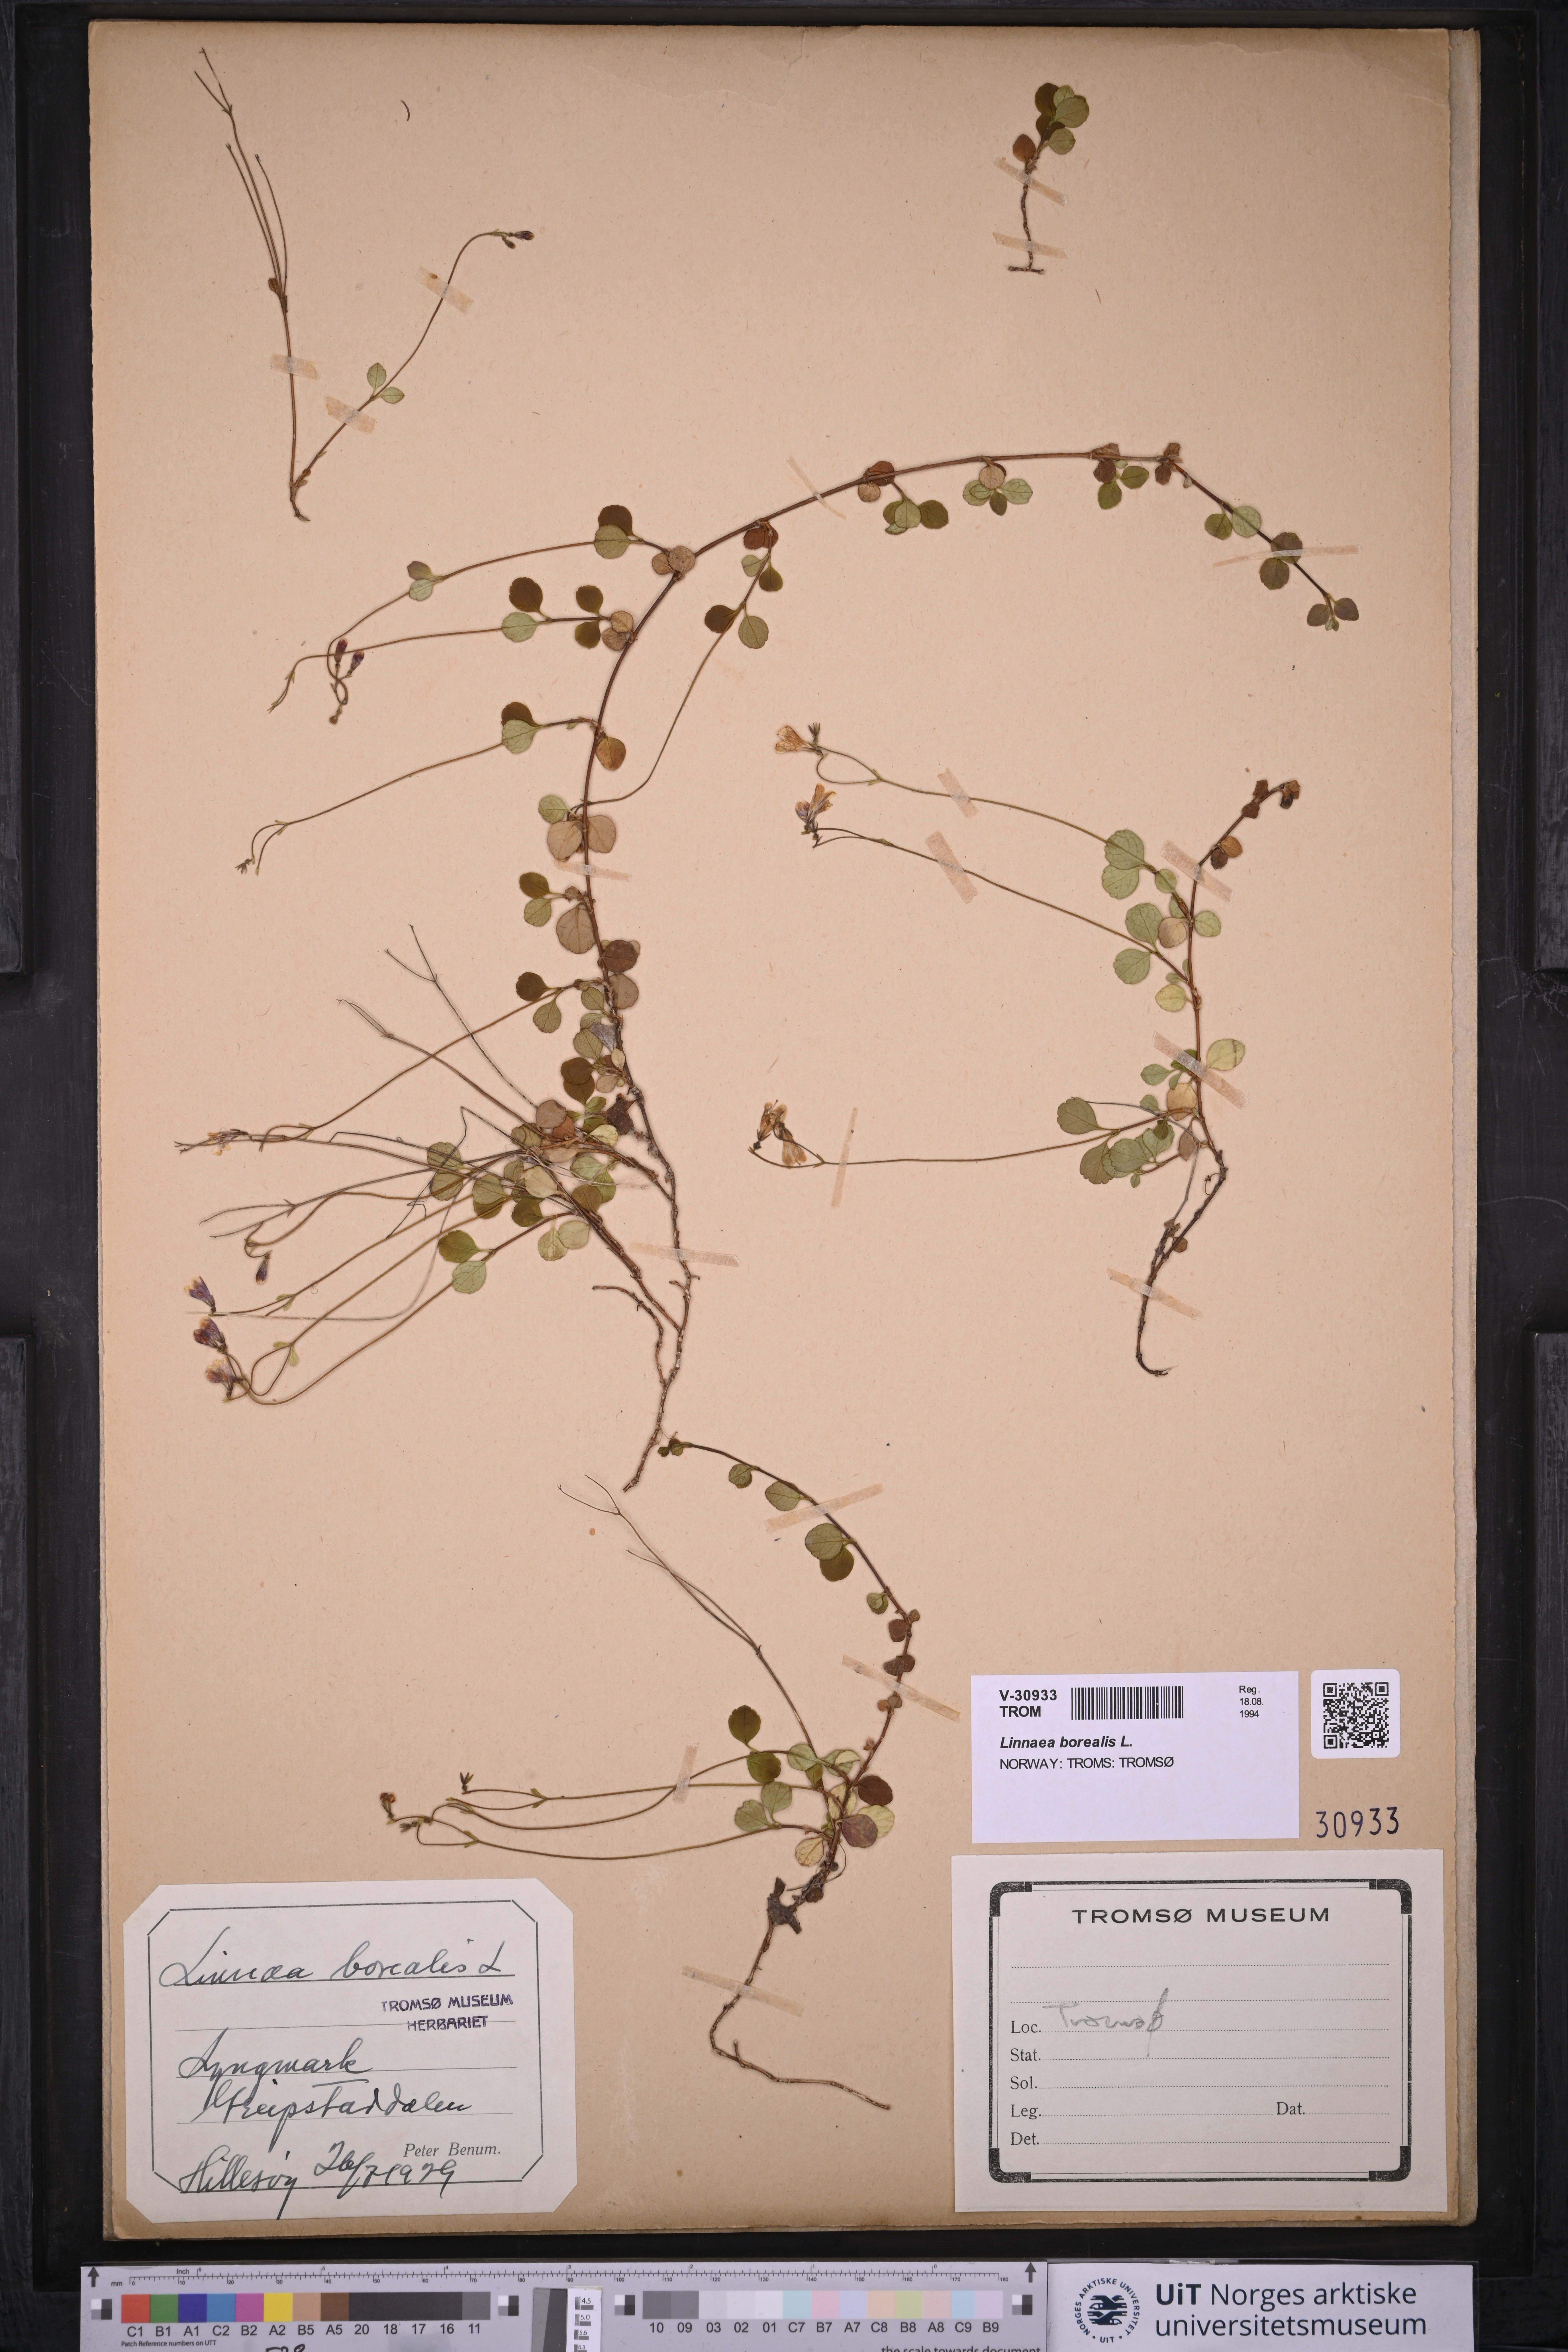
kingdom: Plantae
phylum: Tracheophyta
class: Magnoliopsida
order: Dipsacales
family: Caprifoliaceae
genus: Linnaea
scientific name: Linnaea borealis
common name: Twinflower
